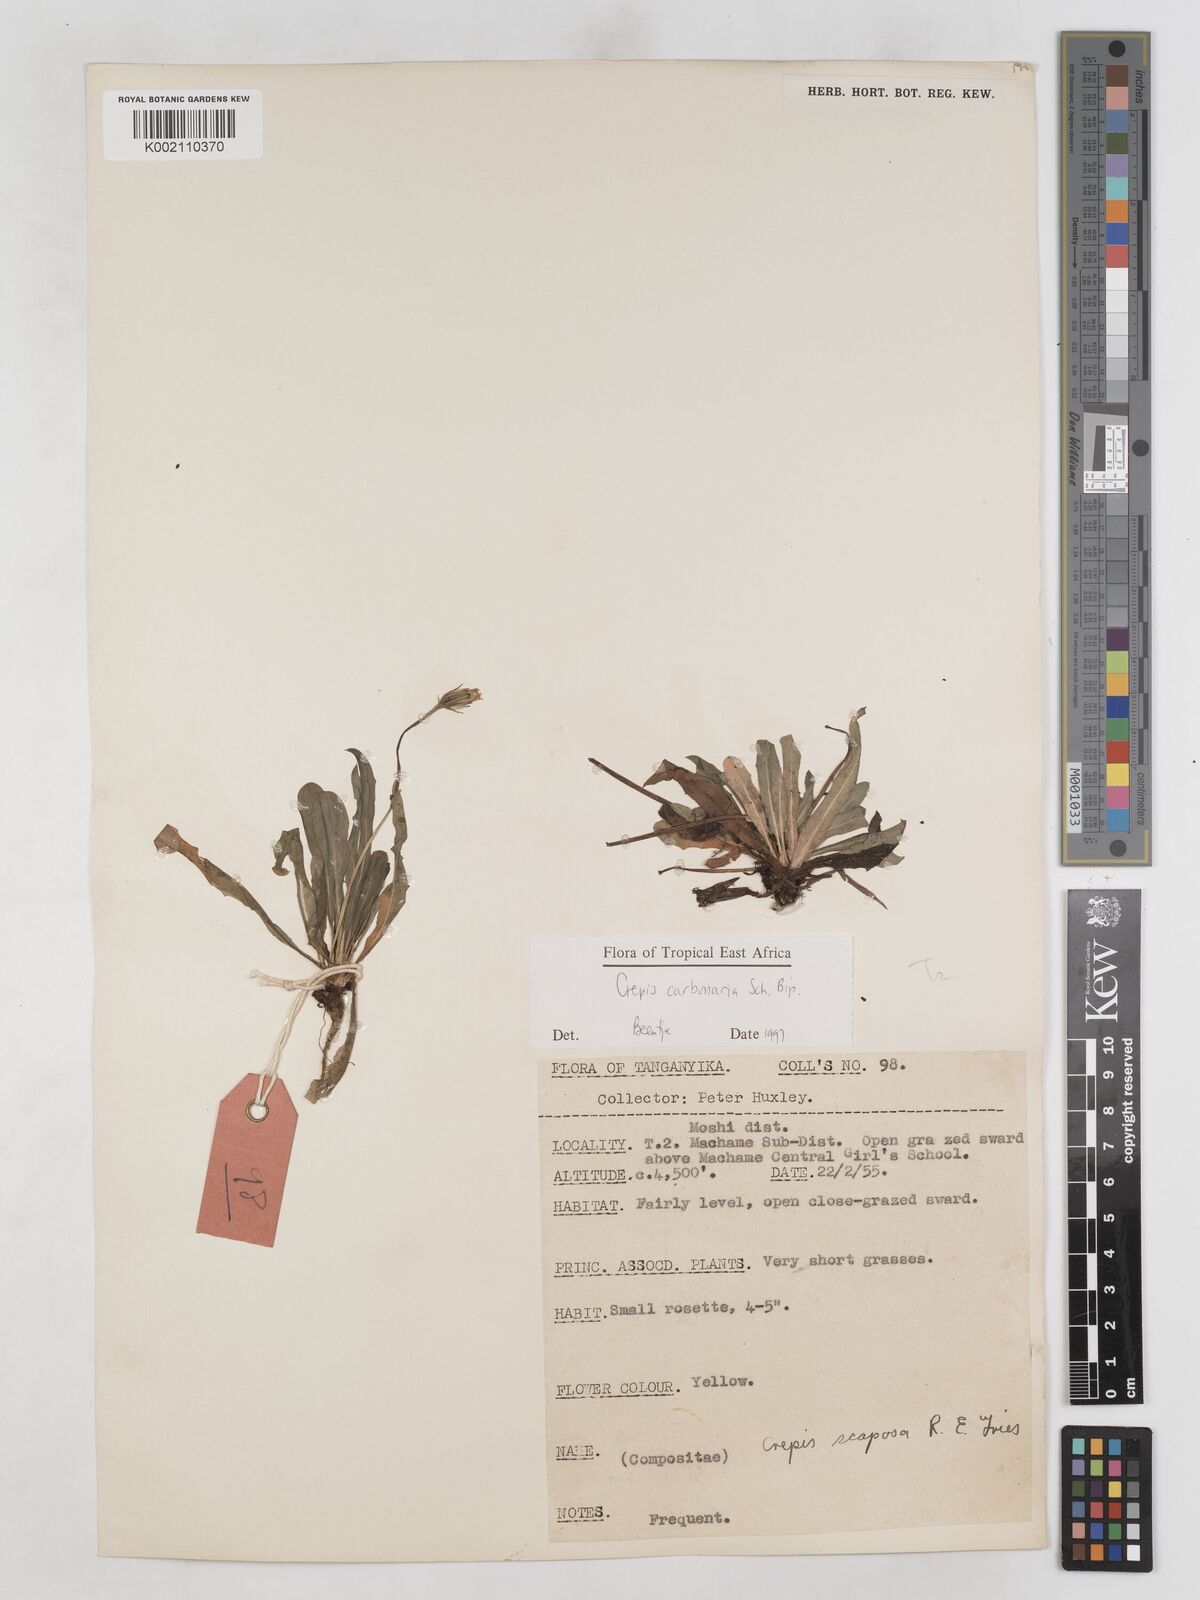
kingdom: Plantae
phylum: Tracheophyta
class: Magnoliopsida
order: Asterales
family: Asteraceae
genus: Crepis
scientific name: Crepis carbonaria
